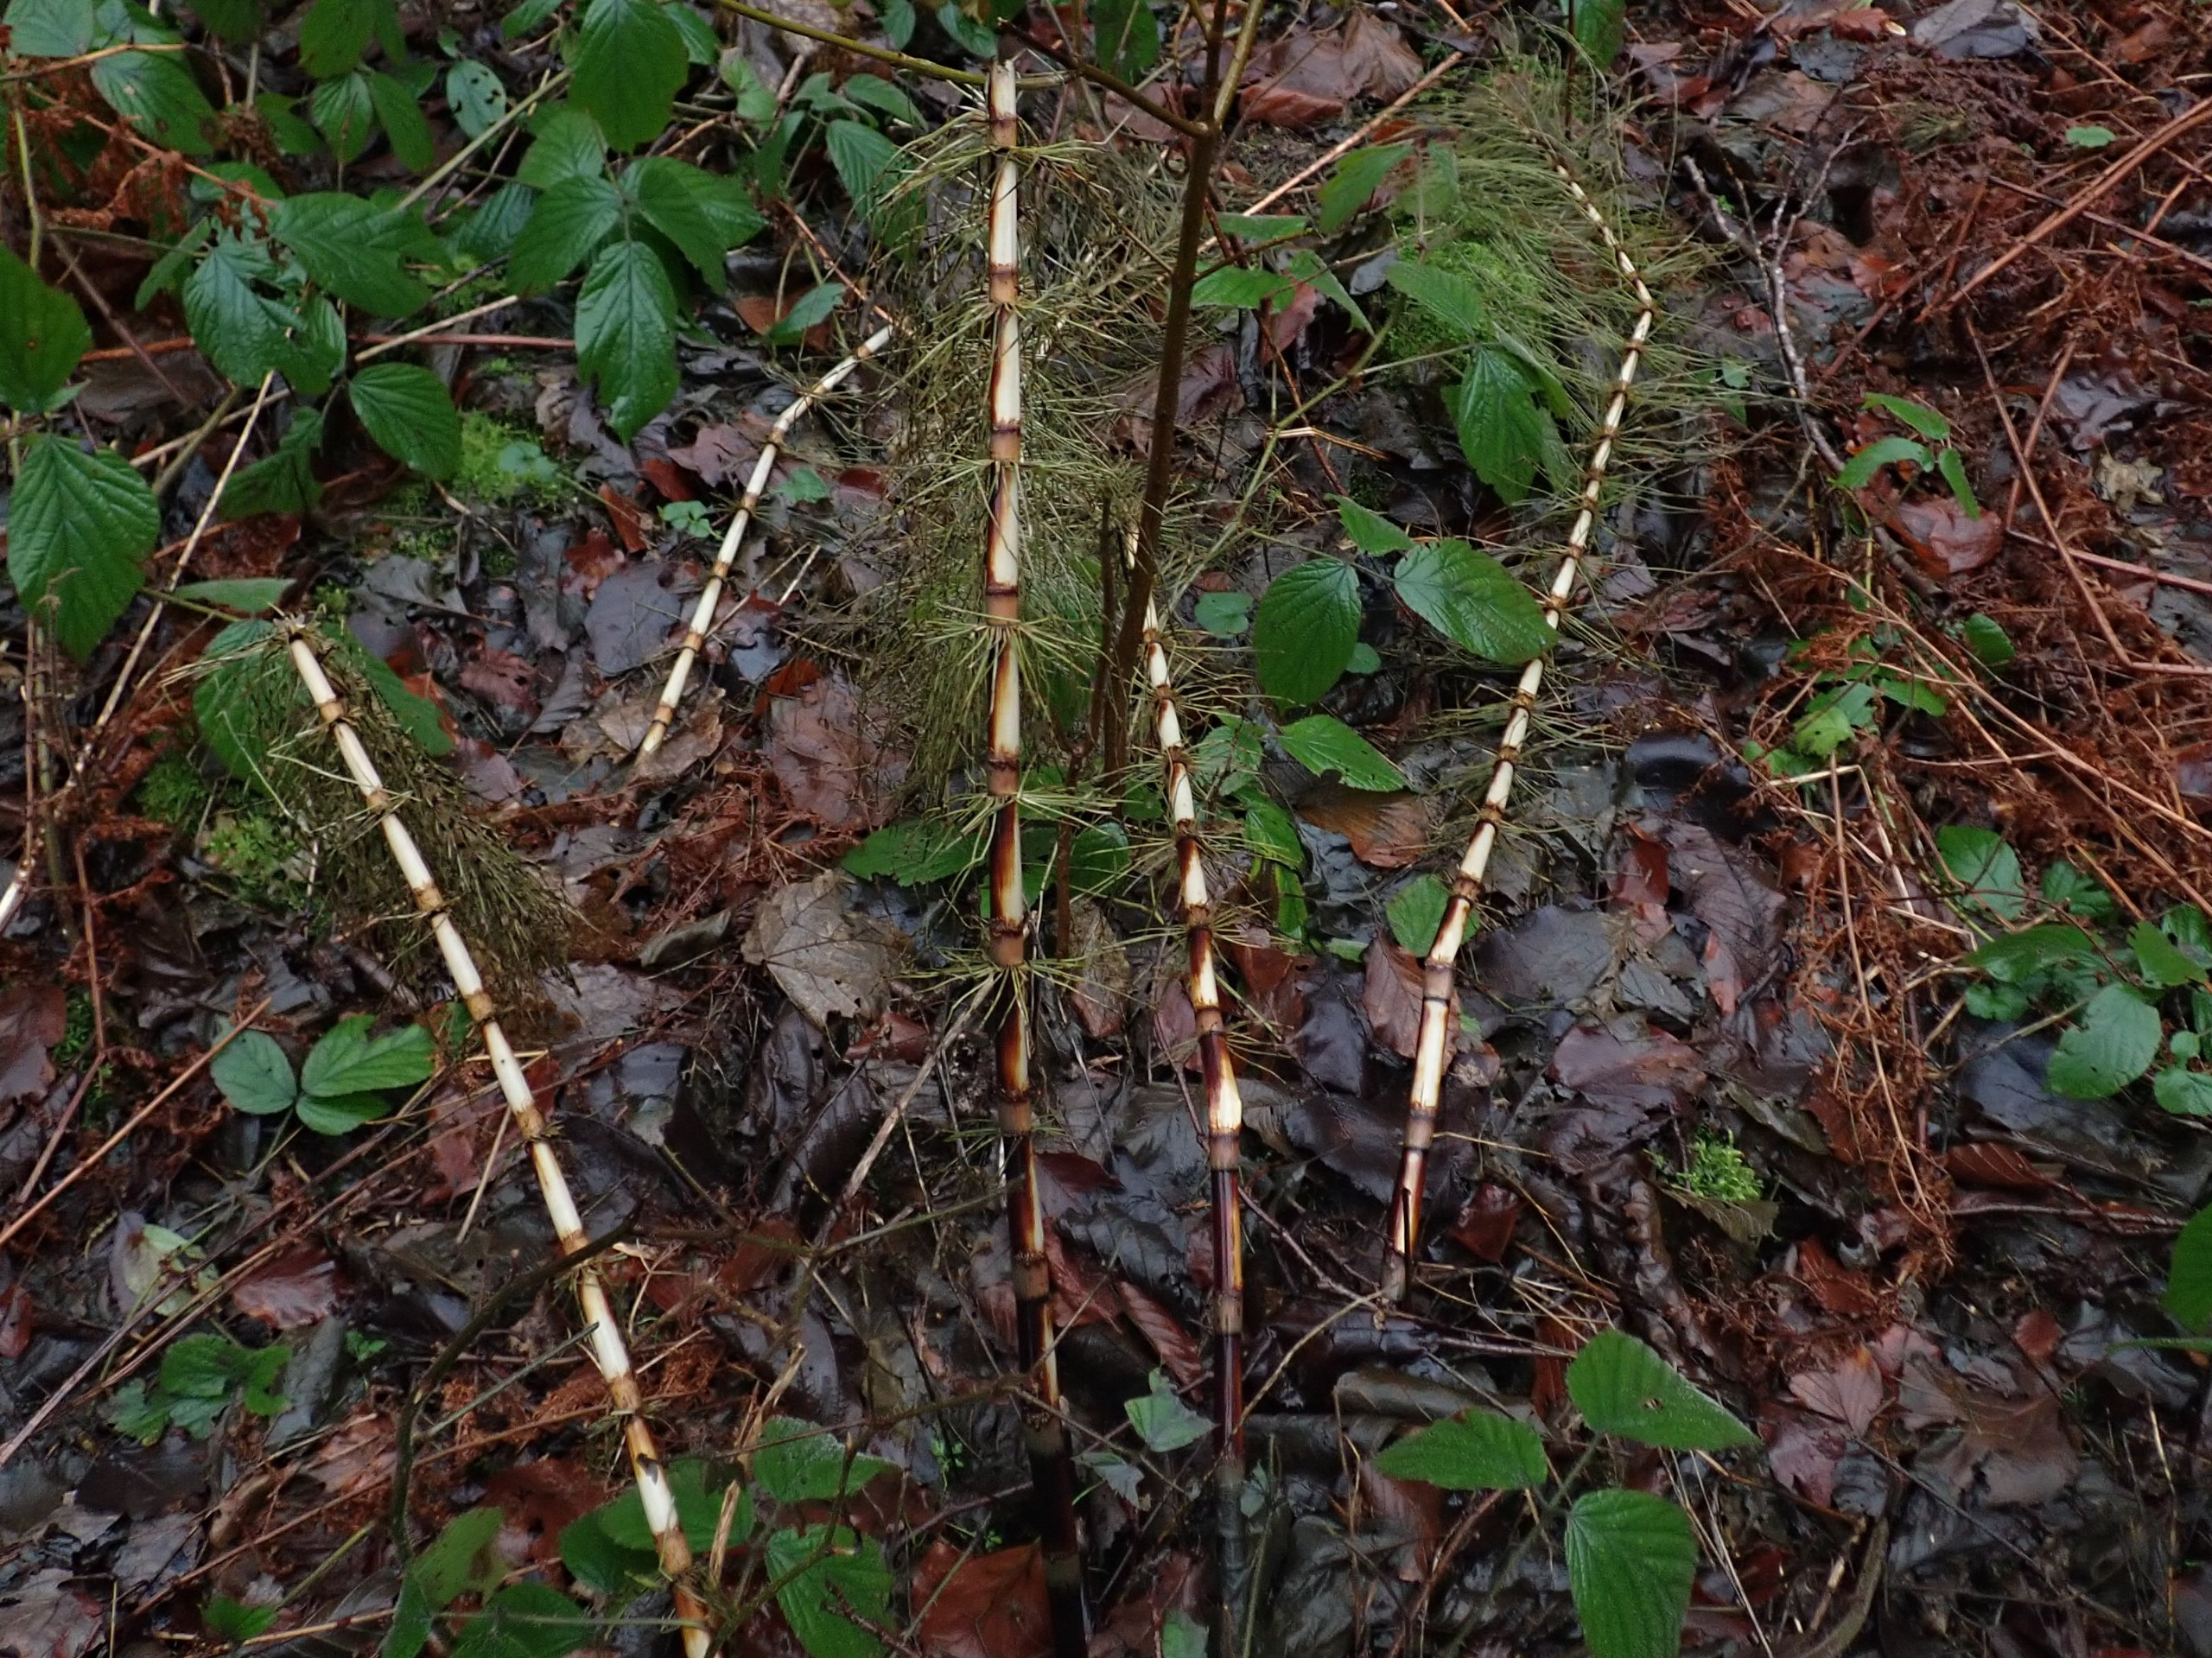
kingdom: Plantae
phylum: Tracheophyta
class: Polypodiopsida
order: Equisetales
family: Equisetaceae
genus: Equisetum
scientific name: Equisetum telmateia
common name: Elfenbens-padderok
